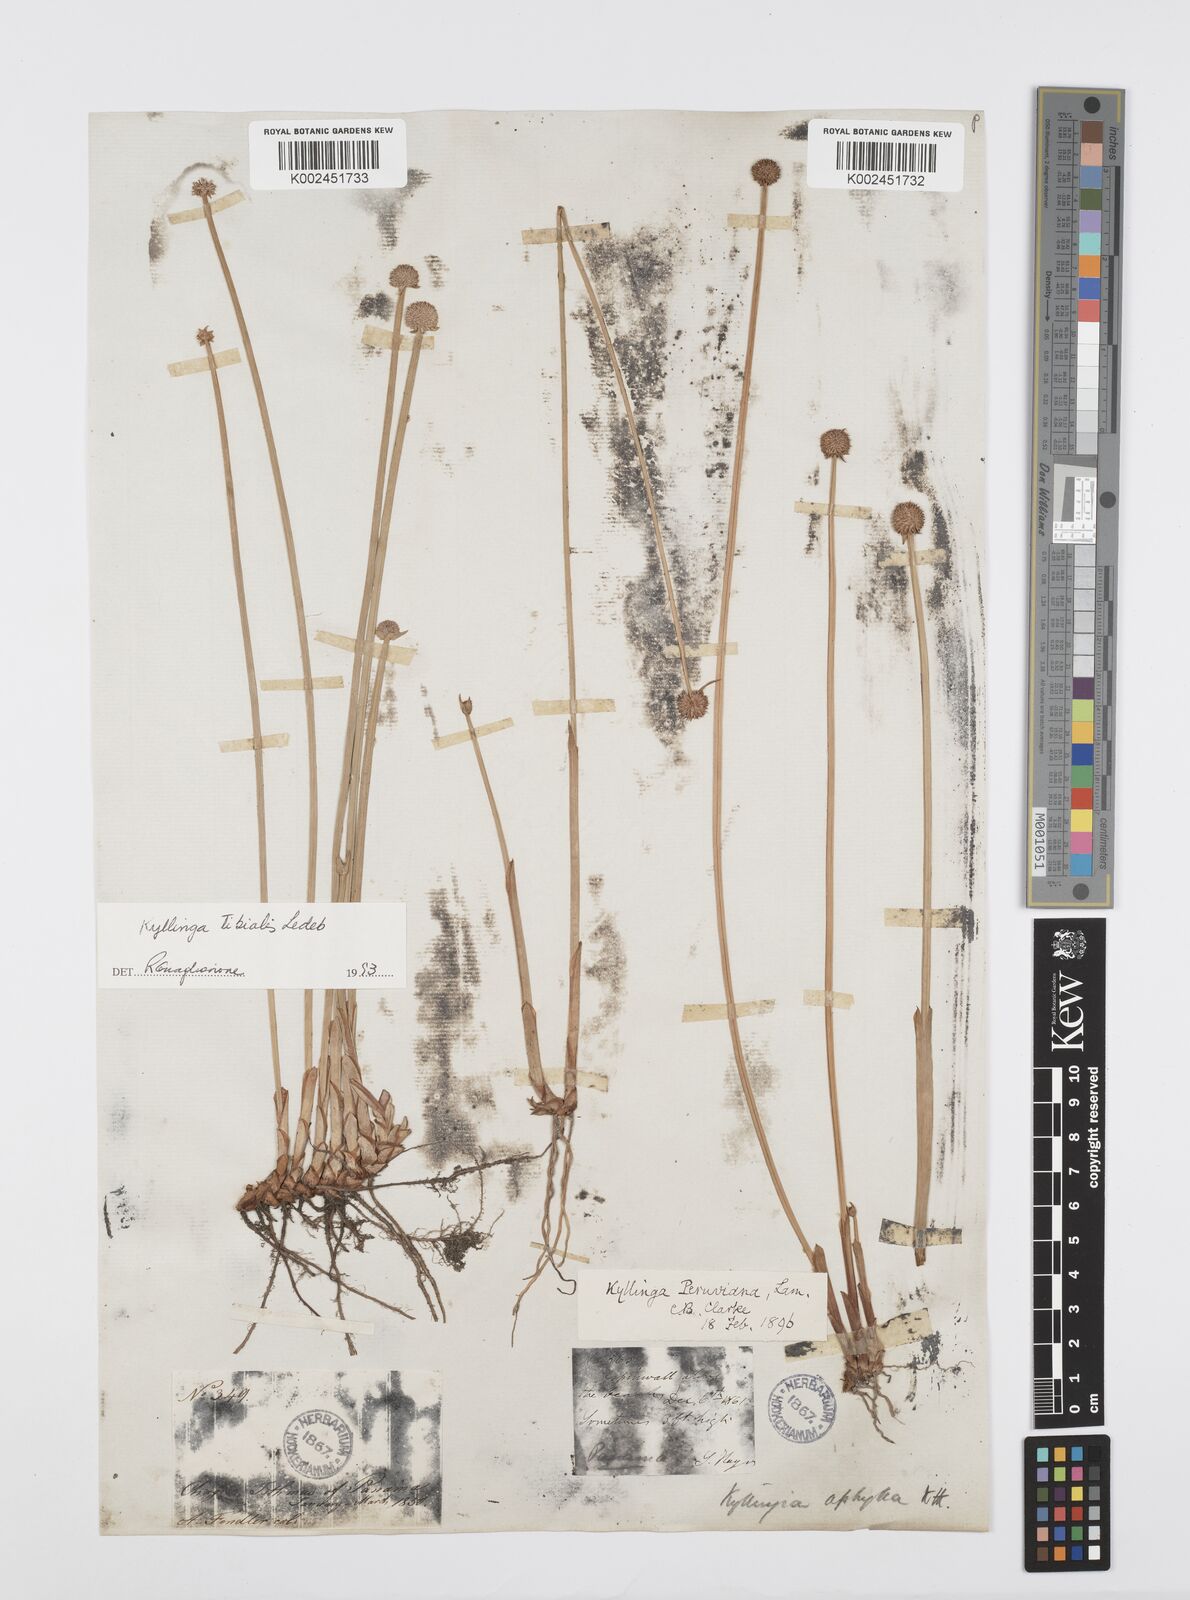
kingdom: Plantae
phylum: Tracheophyta
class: Liliopsida
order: Poales
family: Cyperaceae
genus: Cyperus
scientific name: Cyperus obtusatus
